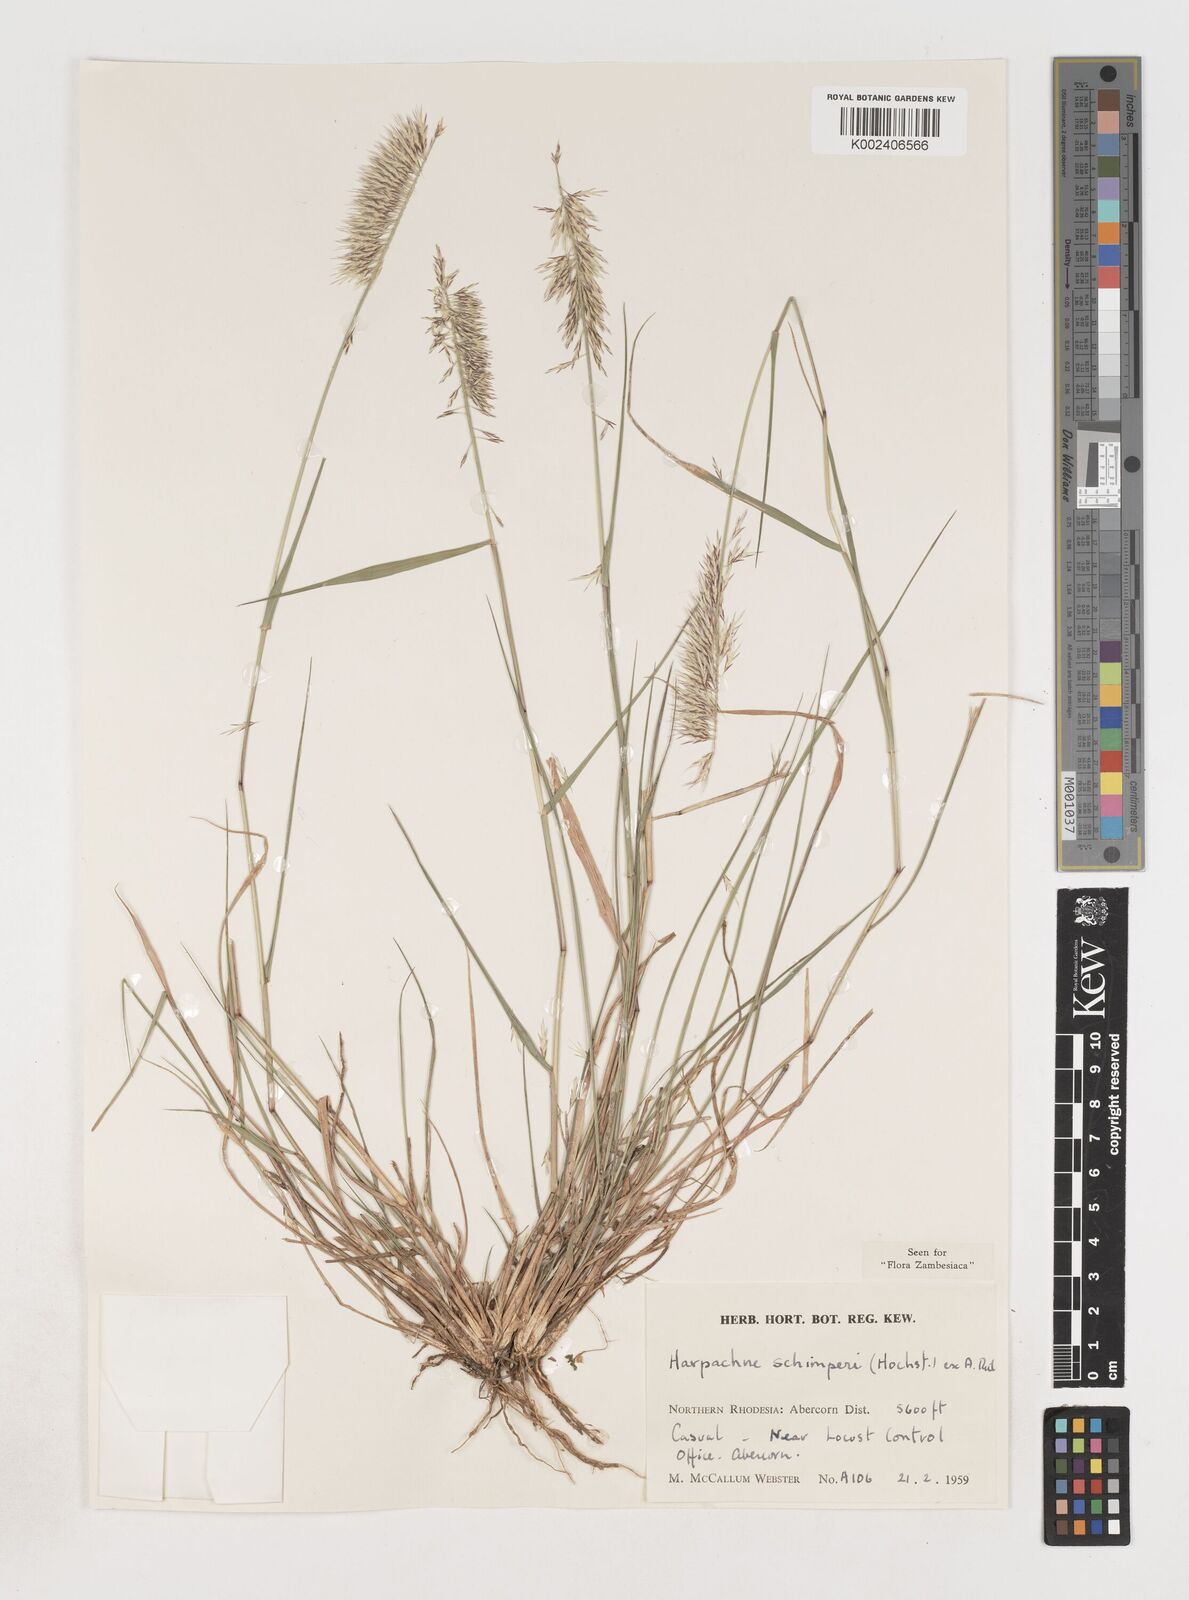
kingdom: Plantae
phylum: Tracheophyta
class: Liliopsida
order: Poales
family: Poaceae
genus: Harpachne
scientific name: Harpachne schimperi
